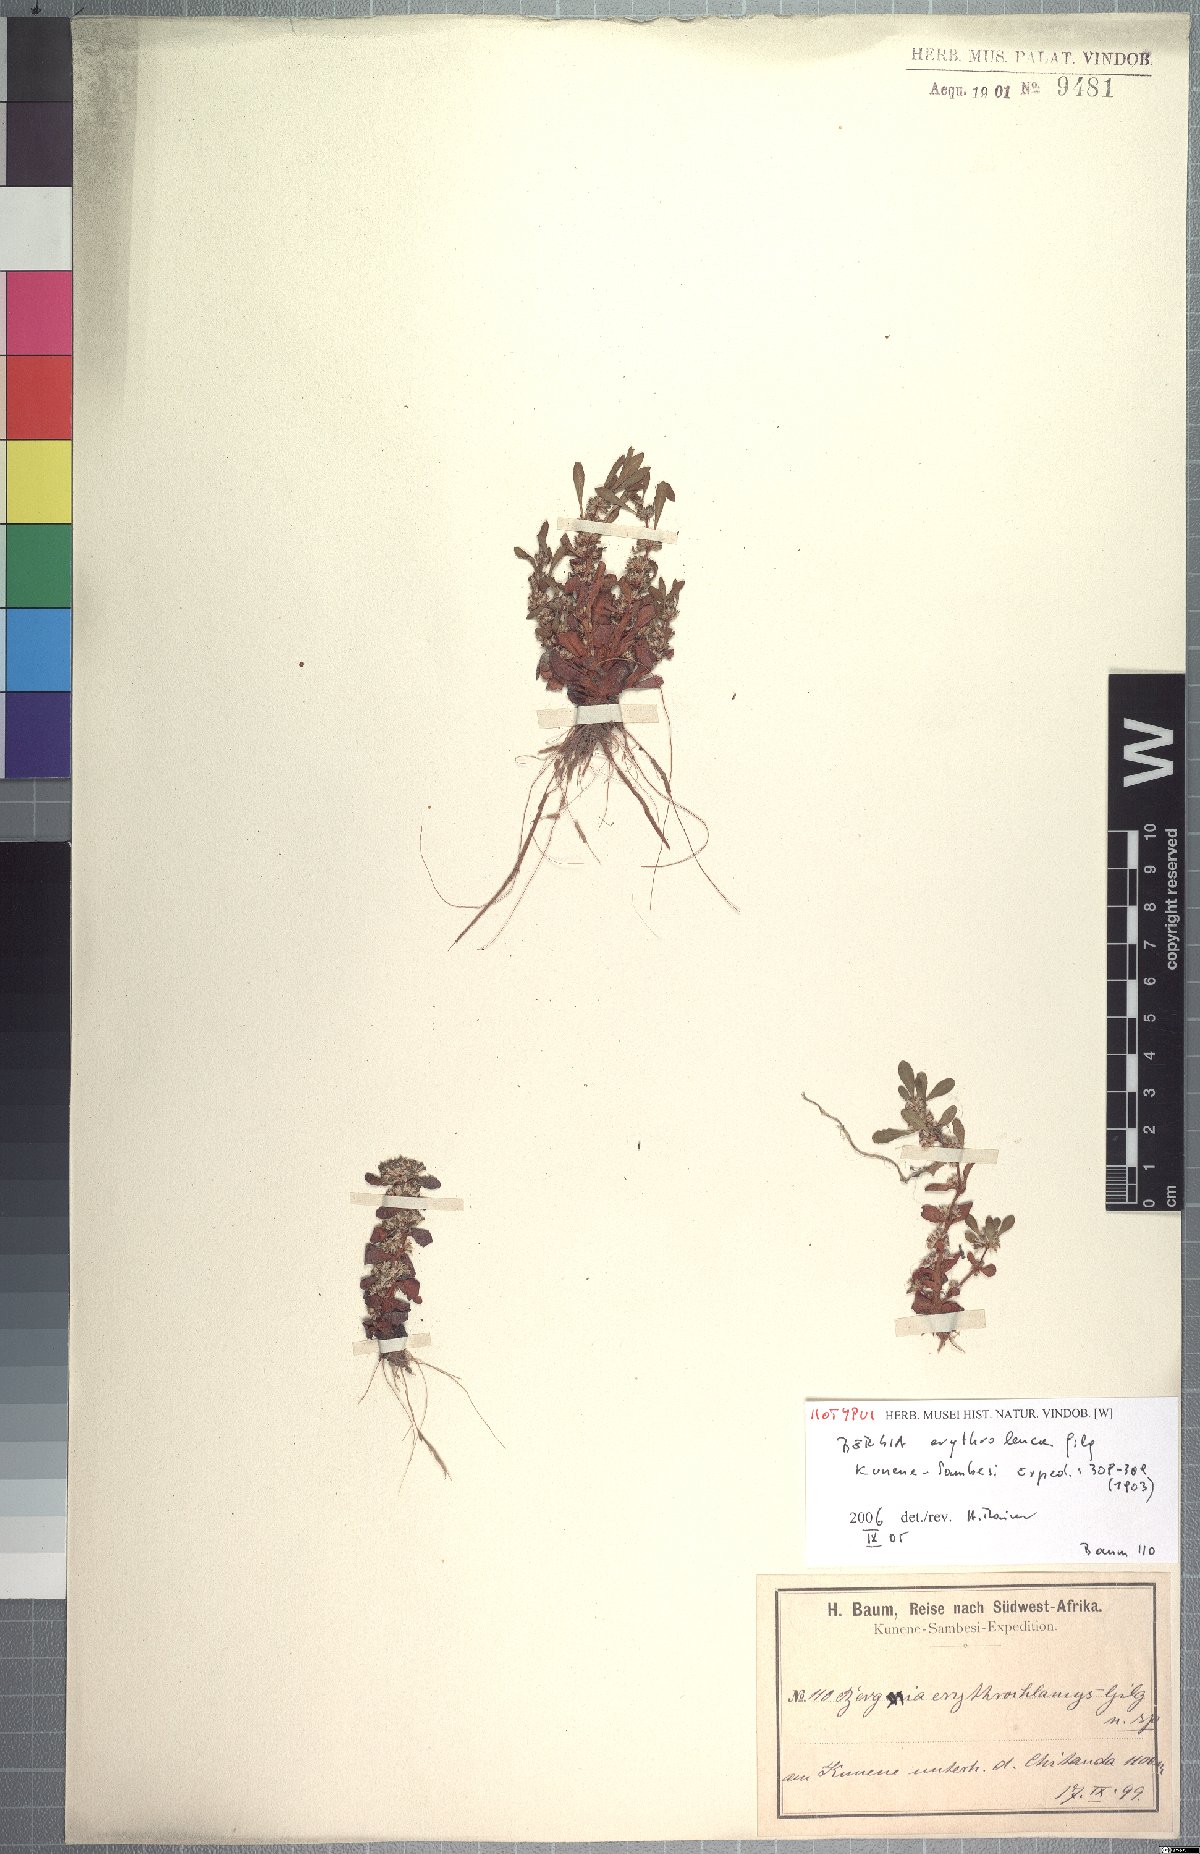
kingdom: Plantae
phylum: Tracheophyta
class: Magnoliopsida
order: Malpighiales
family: Elatinaceae
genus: Bergia
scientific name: Bergia spathulata
